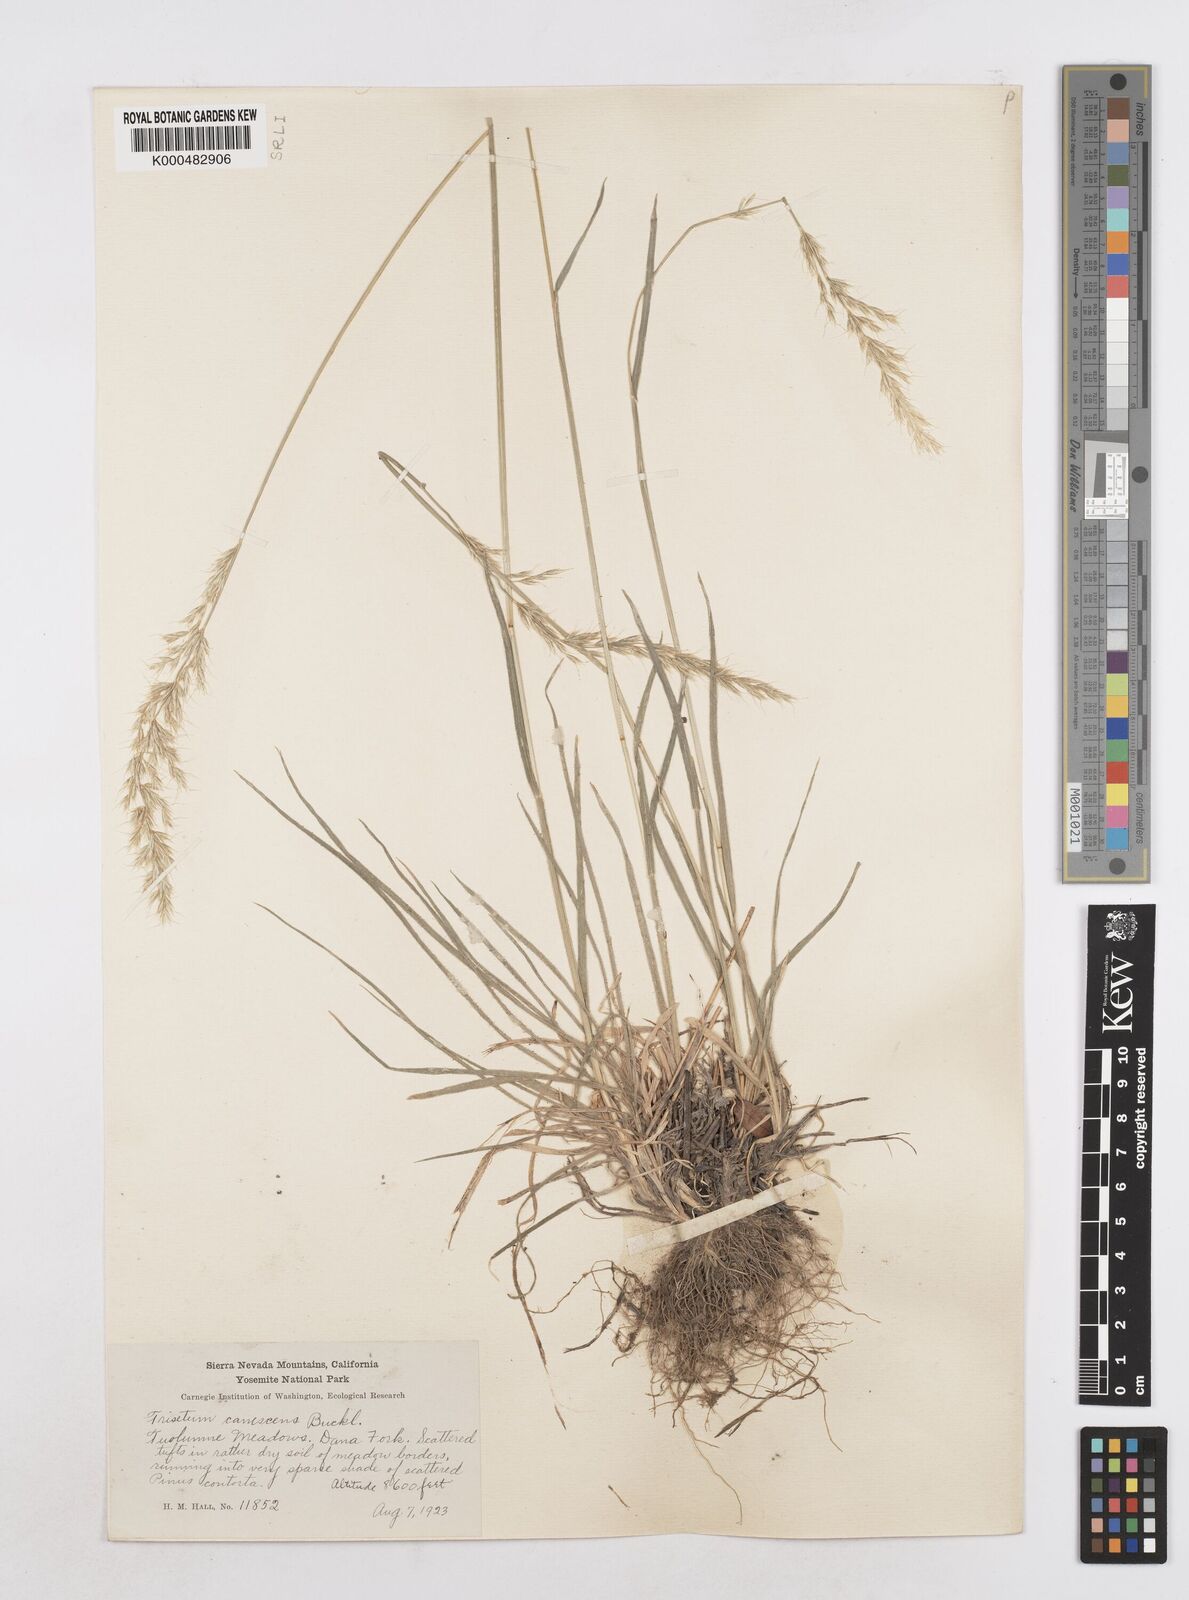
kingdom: Plantae
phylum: Tracheophyta
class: Liliopsida
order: Poales
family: Poaceae
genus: Graphephorum
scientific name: Graphephorum canescens
